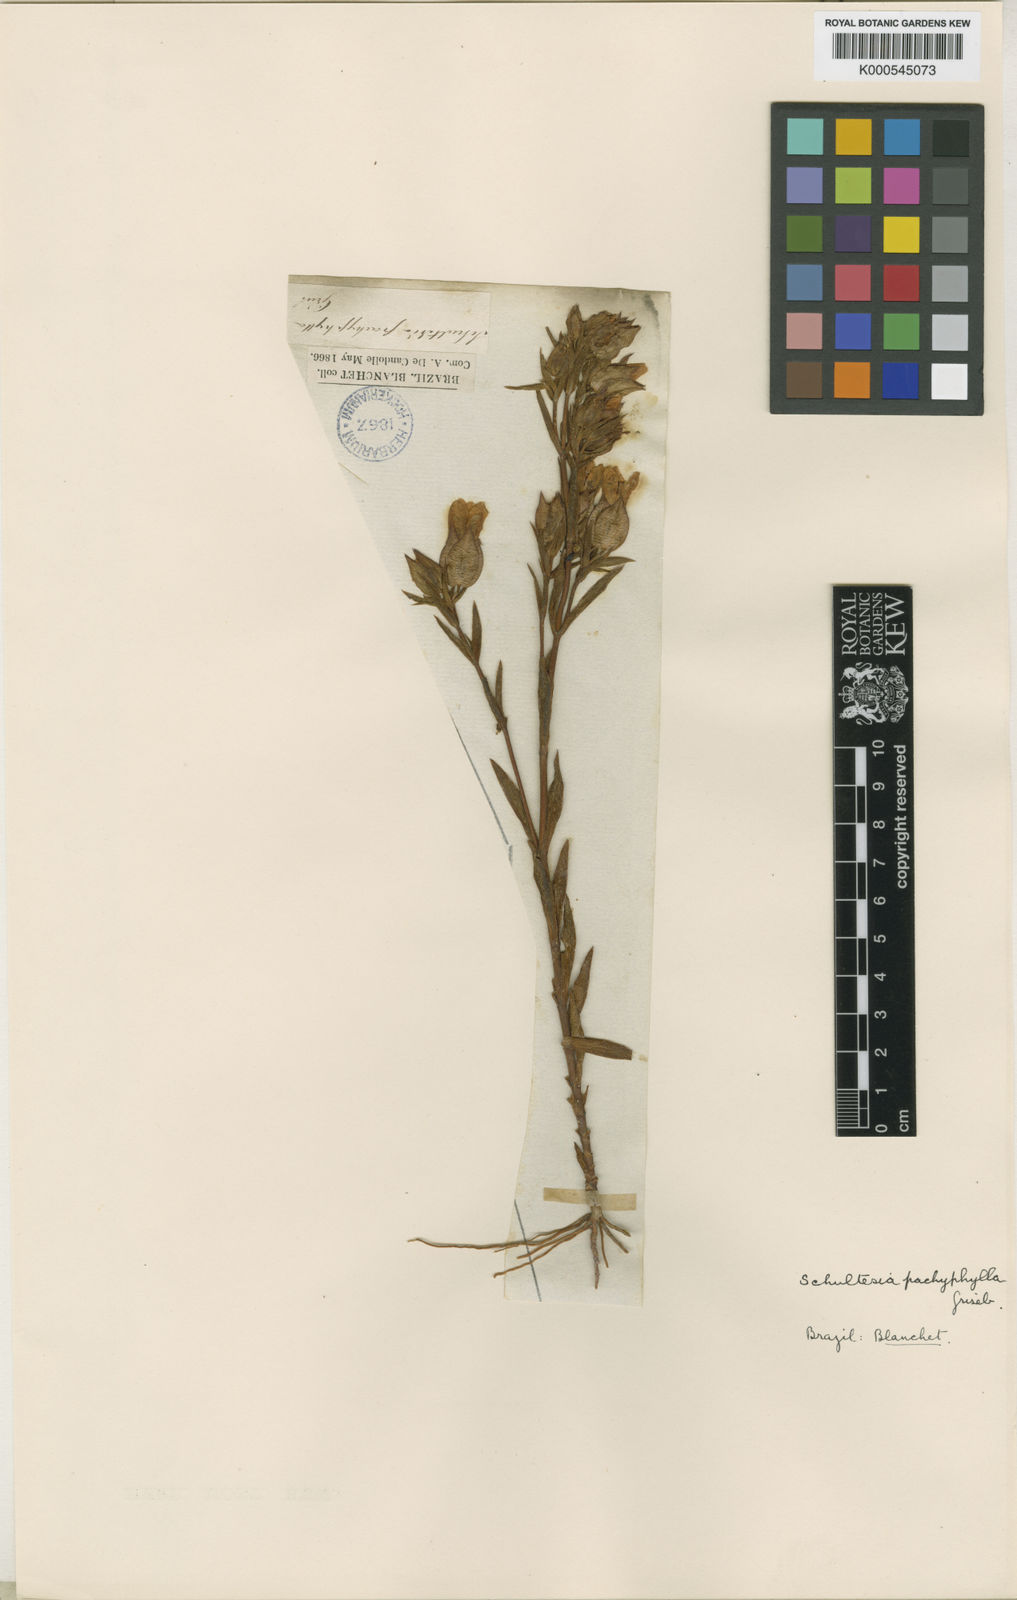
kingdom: Plantae
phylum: Tracheophyta
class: Magnoliopsida
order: Gentianales
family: Gentianaceae
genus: Schultesia
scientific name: Schultesia pachyphylla
